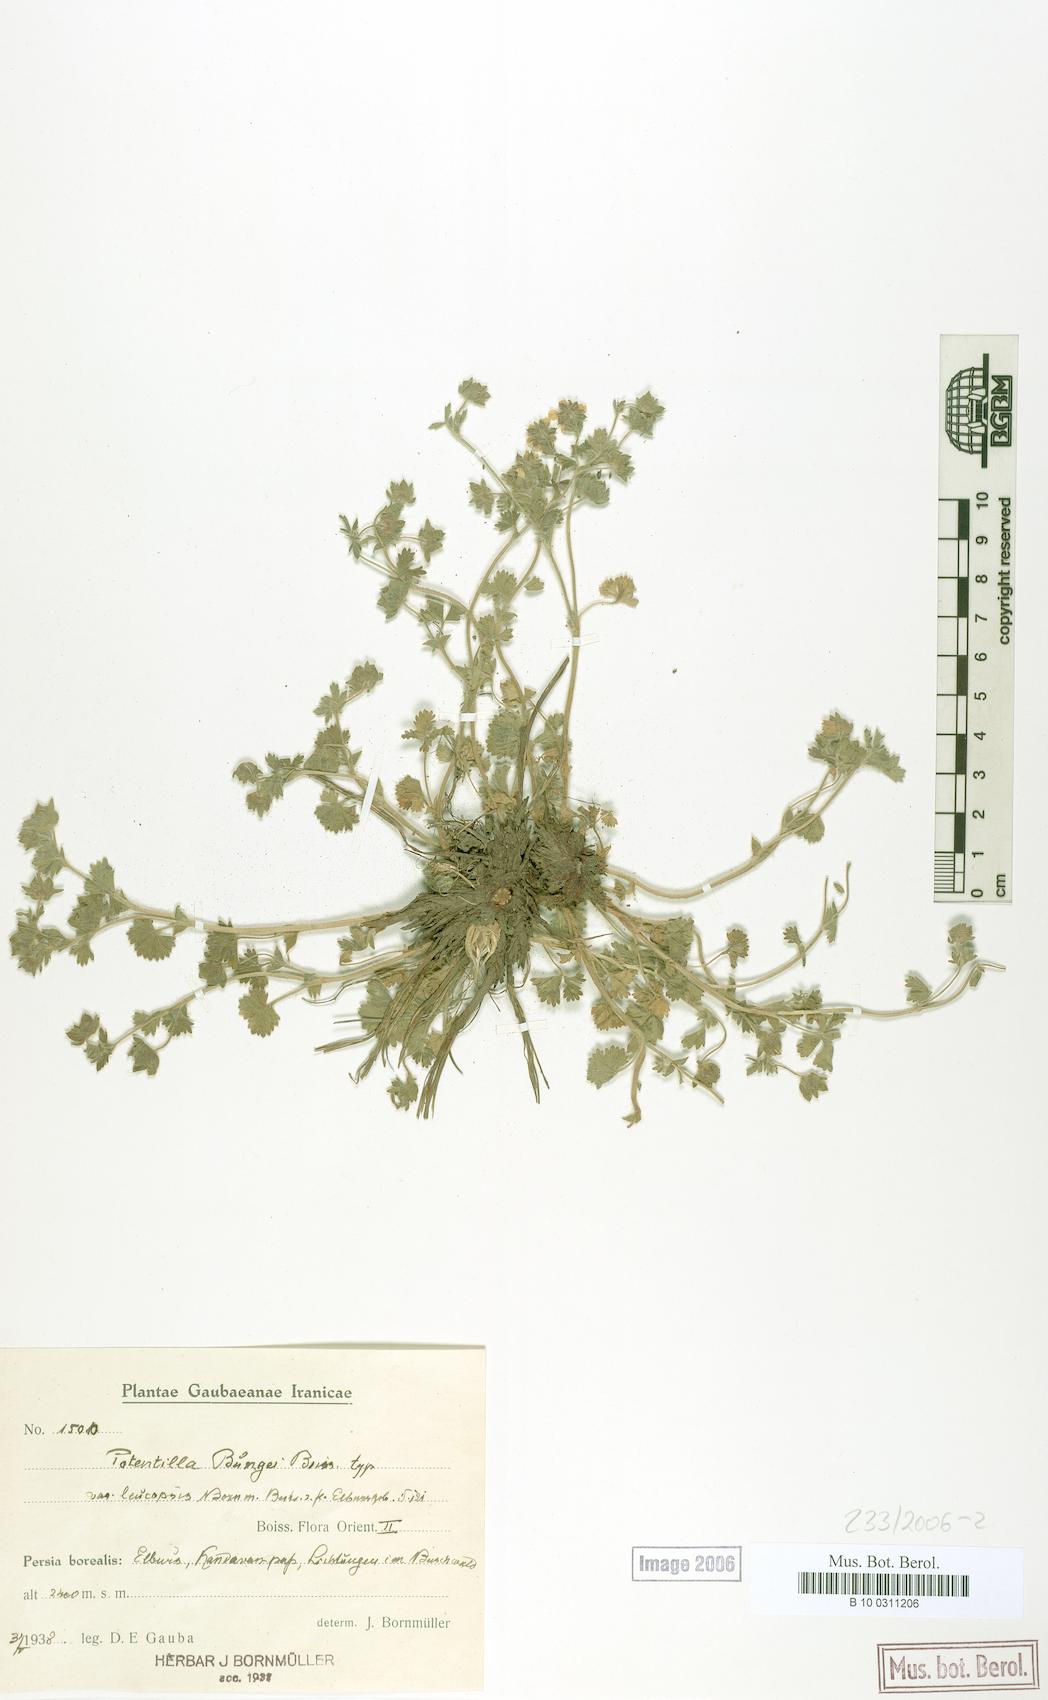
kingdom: Plantae
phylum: Tracheophyta
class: Magnoliopsida
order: Rosales
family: Rosaceae
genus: Potentilla
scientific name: Potentilla bungei
